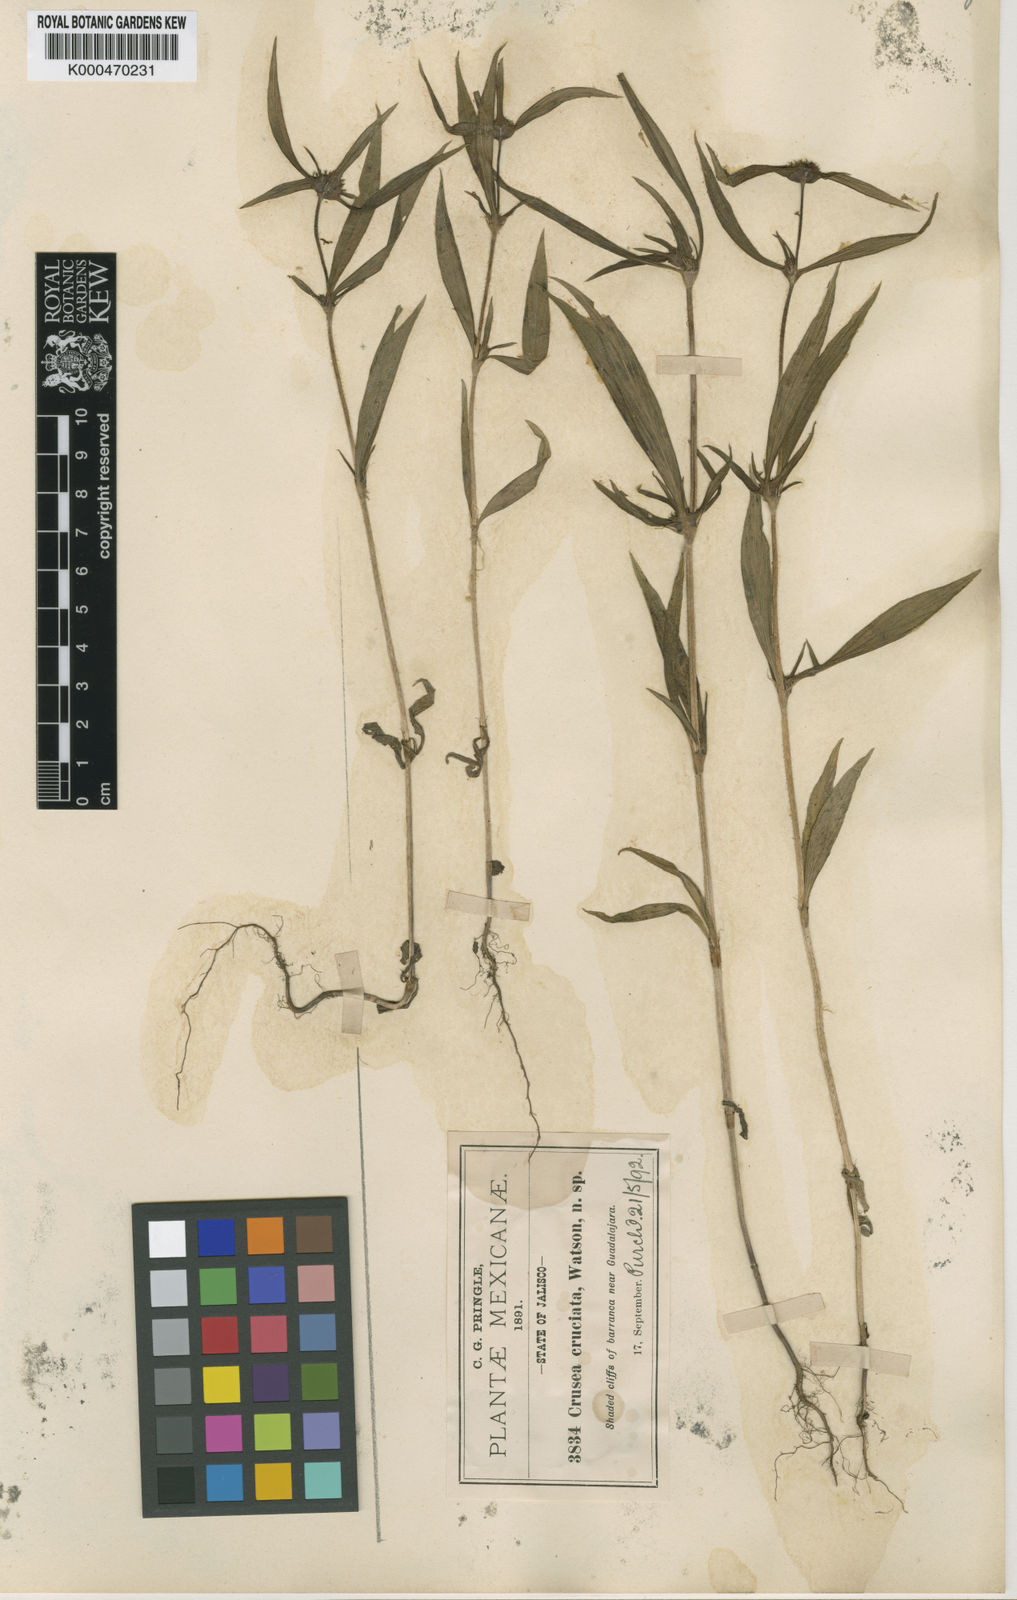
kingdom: Plantae
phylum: Tracheophyta
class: Magnoliopsida
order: Gentianales
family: Rubiaceae
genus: Crusea
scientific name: Crusea setosa
